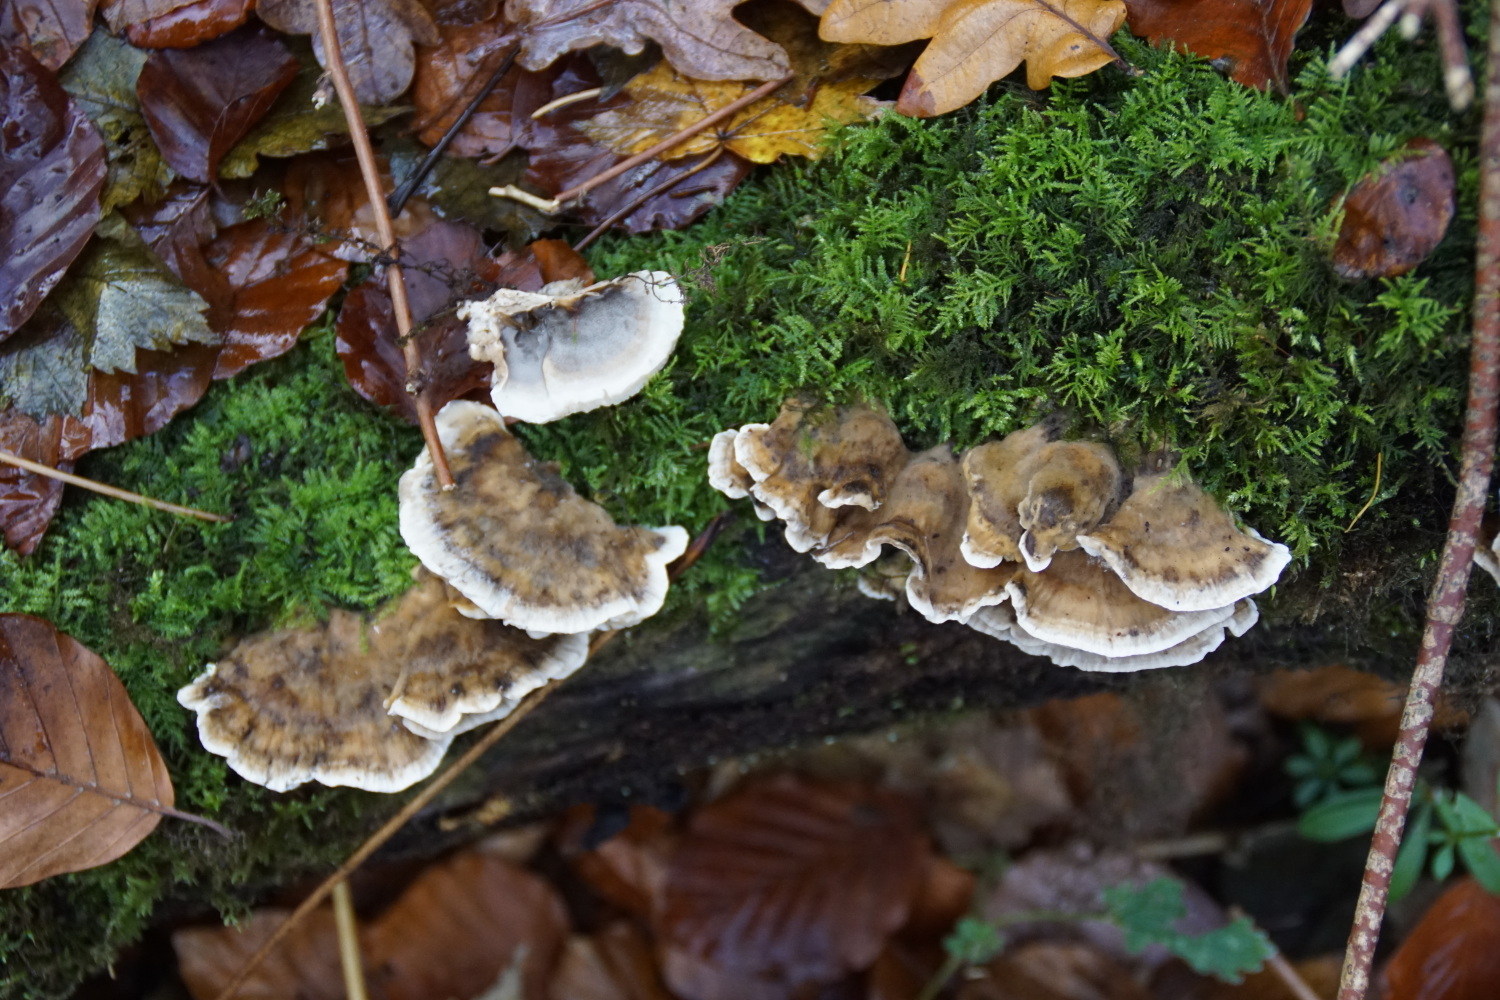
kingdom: Fungi
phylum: Basidiomycota
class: Agaricomycetes
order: Polyporales
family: Phanerochaetaceae
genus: Bjerkandera
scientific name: Bjerkandera adusta
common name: sveden sodporesvamp
